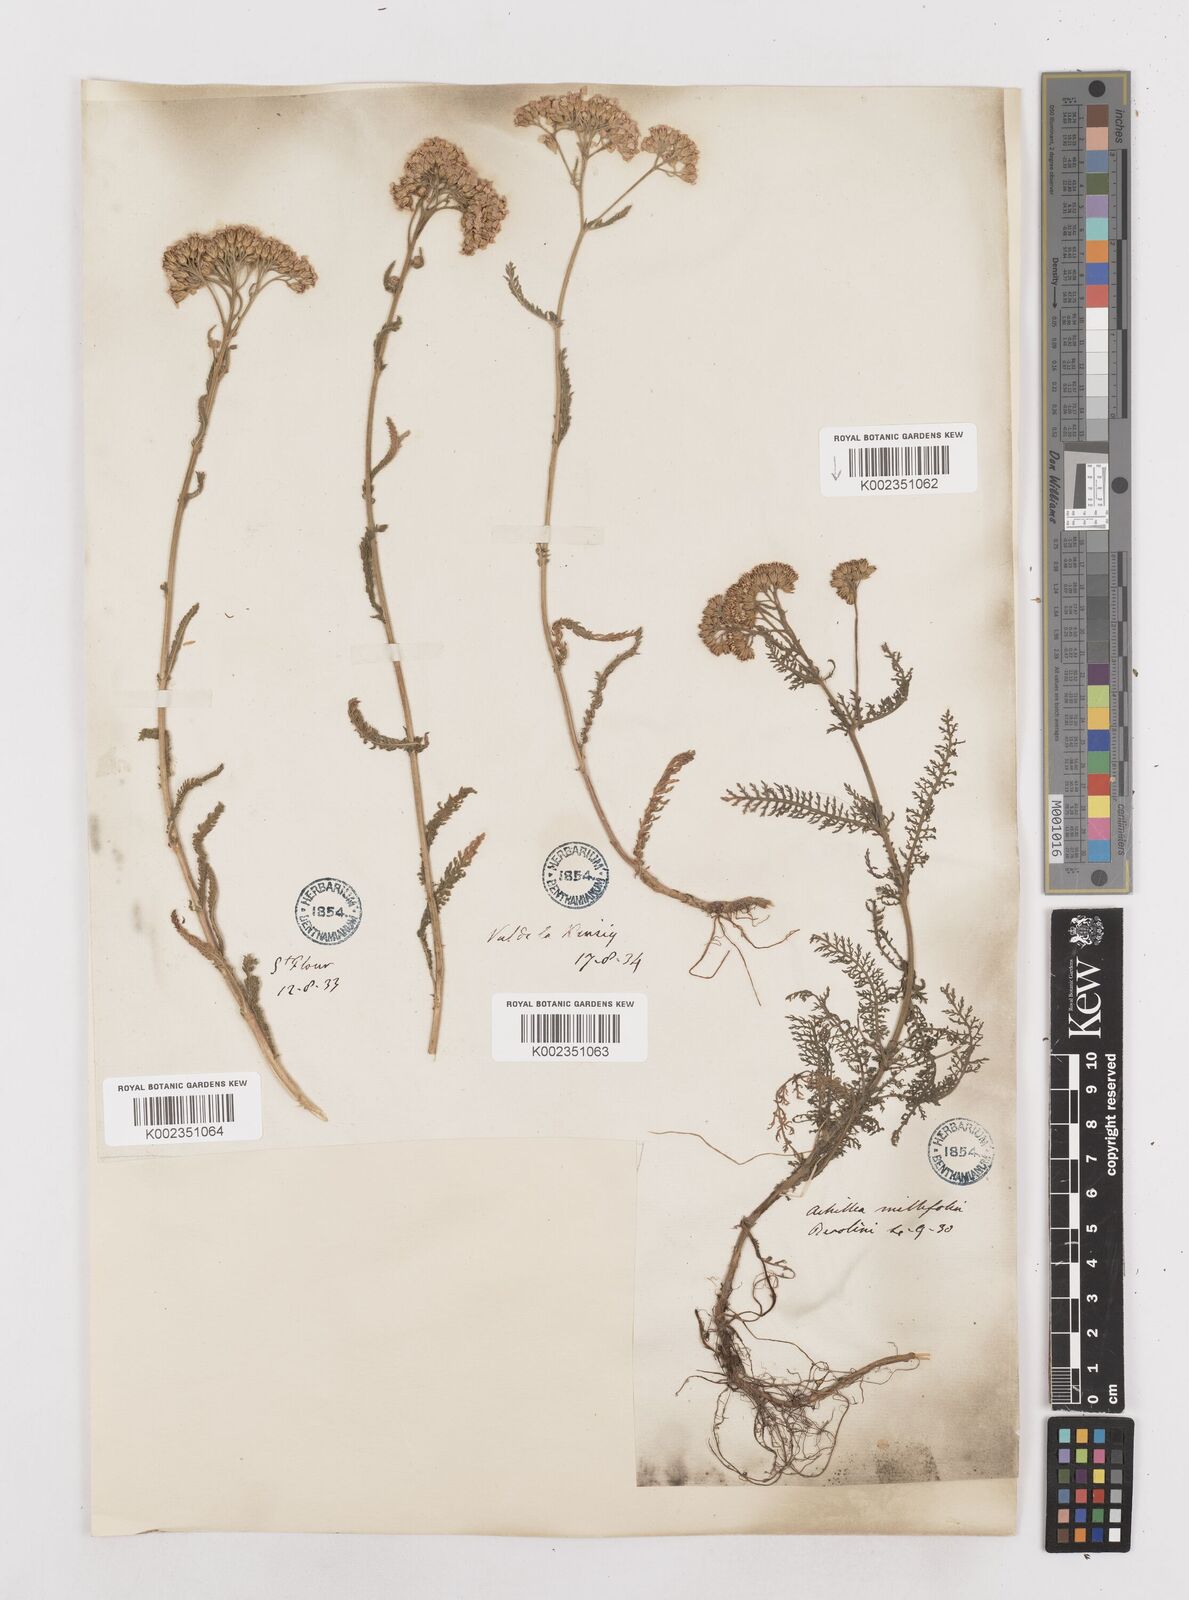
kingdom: Plantae
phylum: Tracheophyta
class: Magnoliopsida
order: Asterales
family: Asteraceae
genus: Achillea
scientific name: Achillea millefolium
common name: Yarrow
